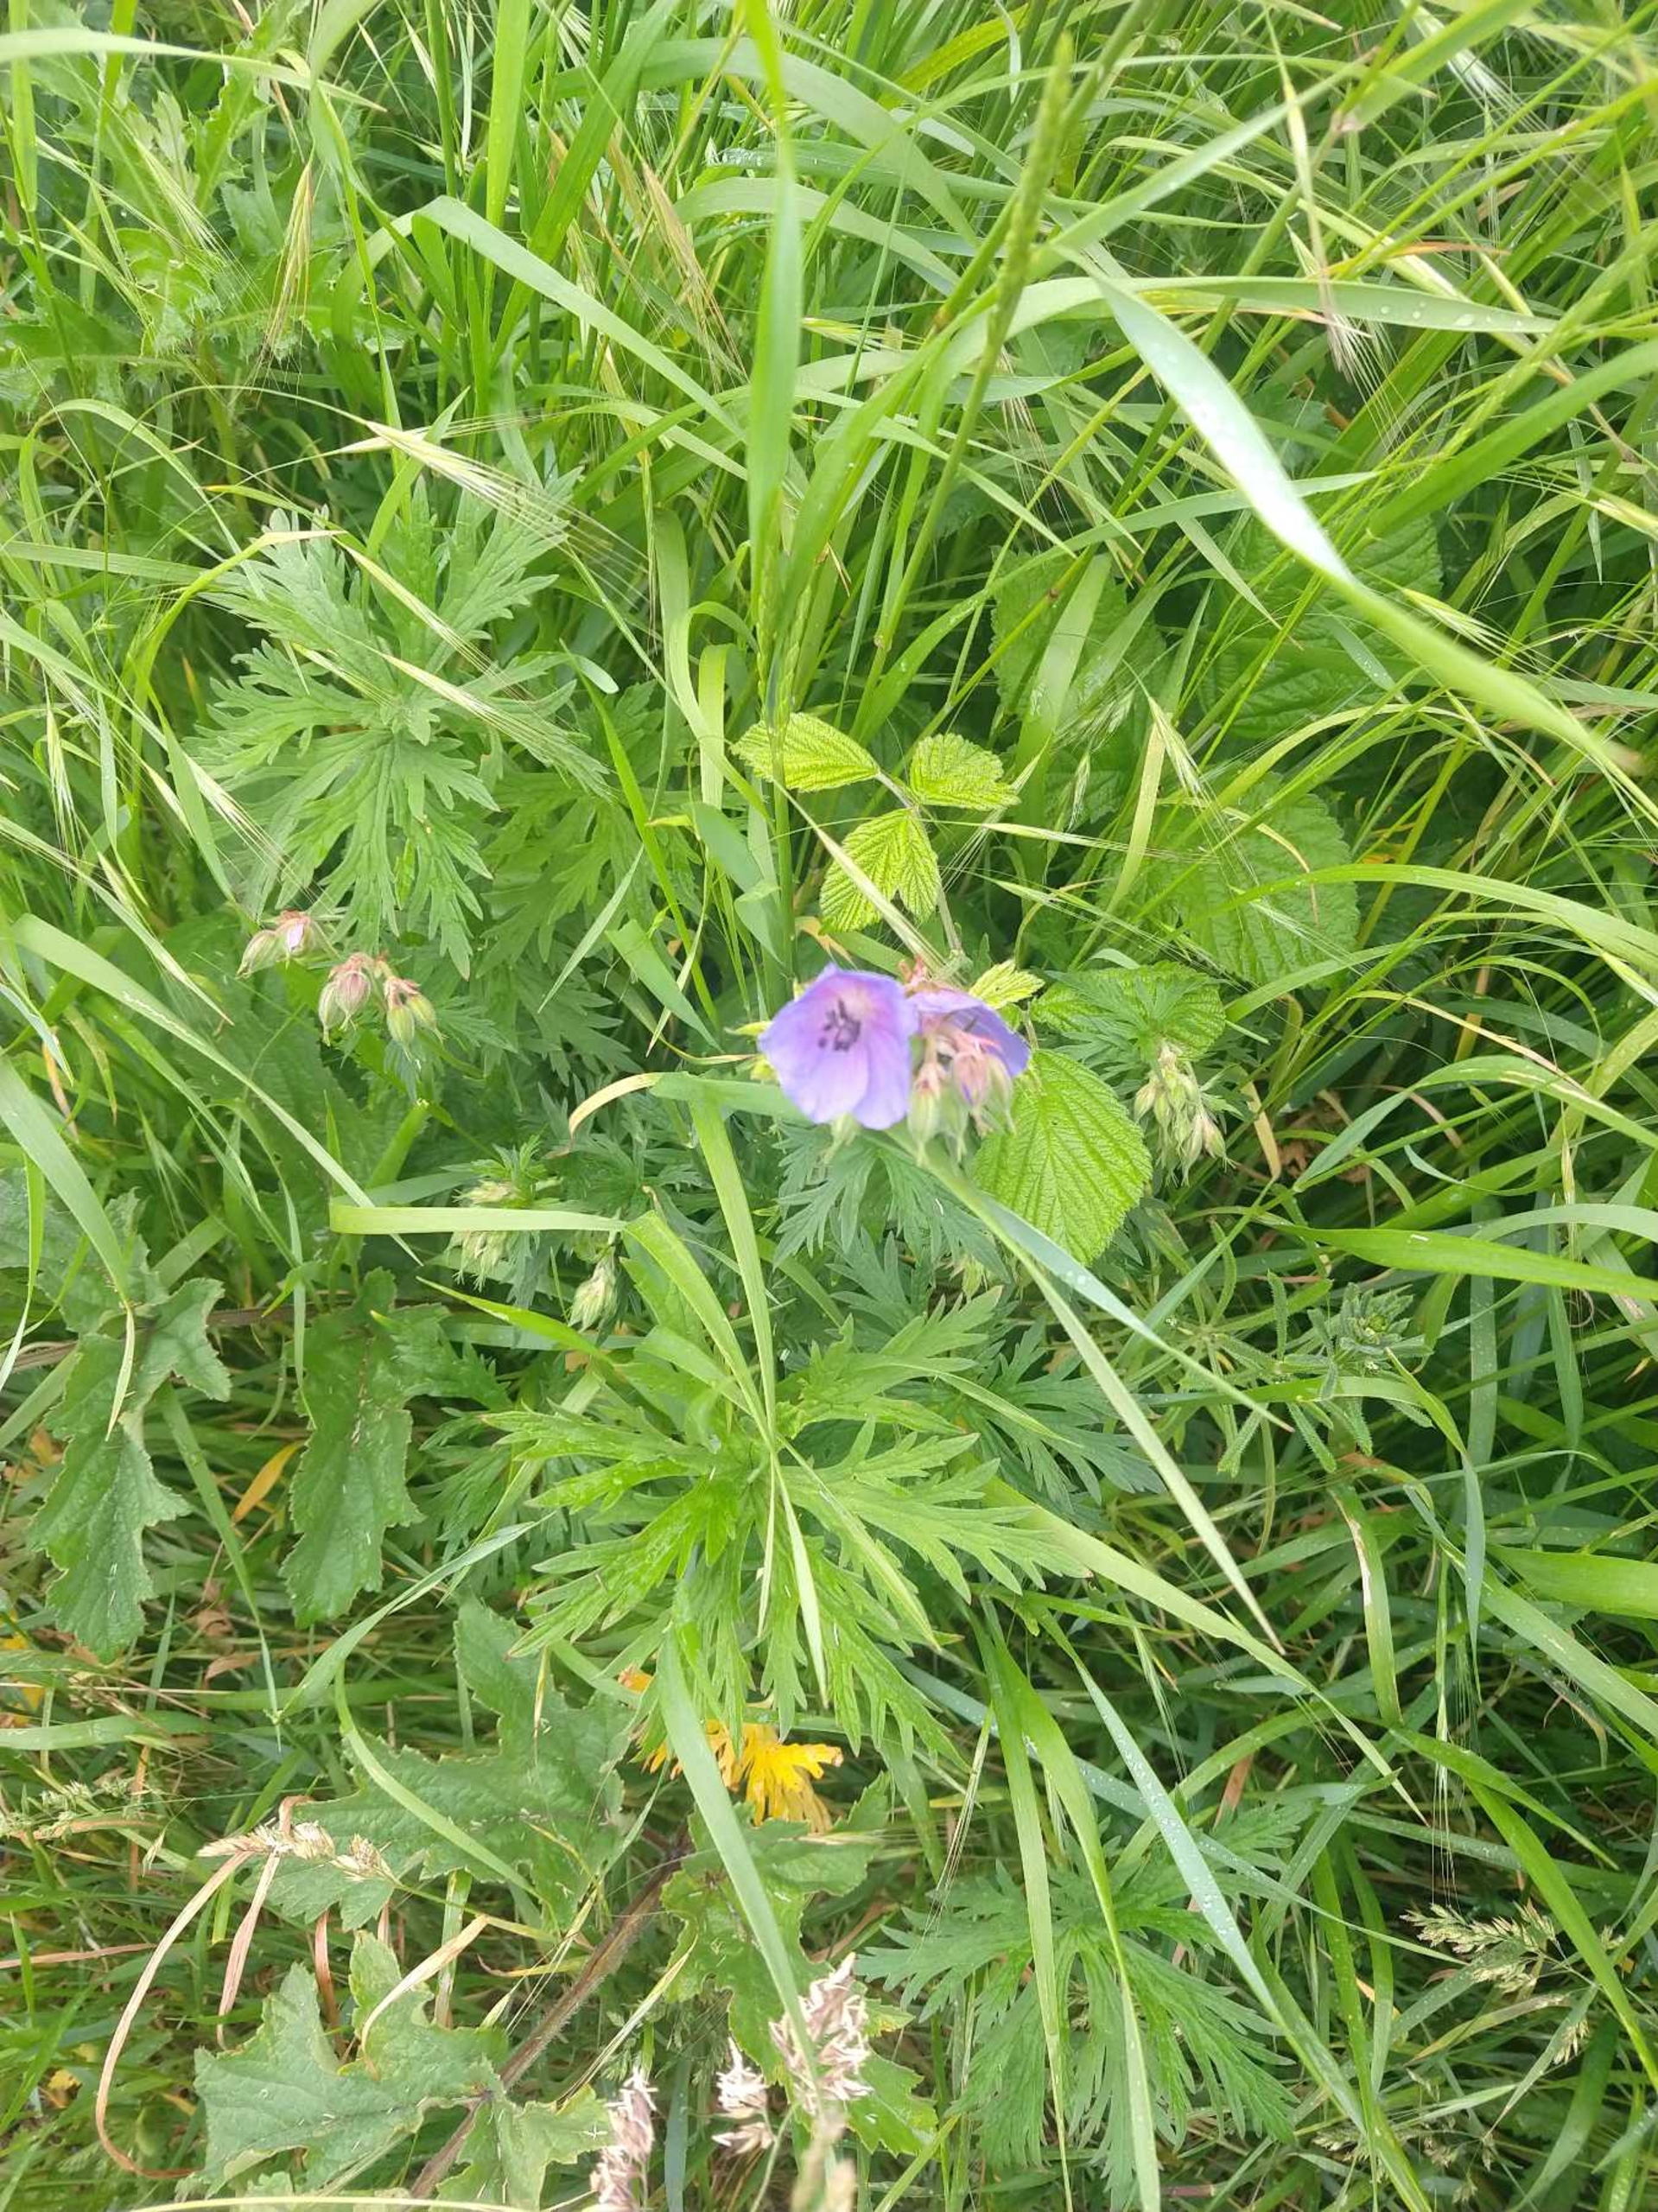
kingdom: Plantae
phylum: Tracheophyta
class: Magnoliopsida
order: Geraniales
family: Geraniaceae
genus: Geranium
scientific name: Geranium pratense
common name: Eng-storkenæb
